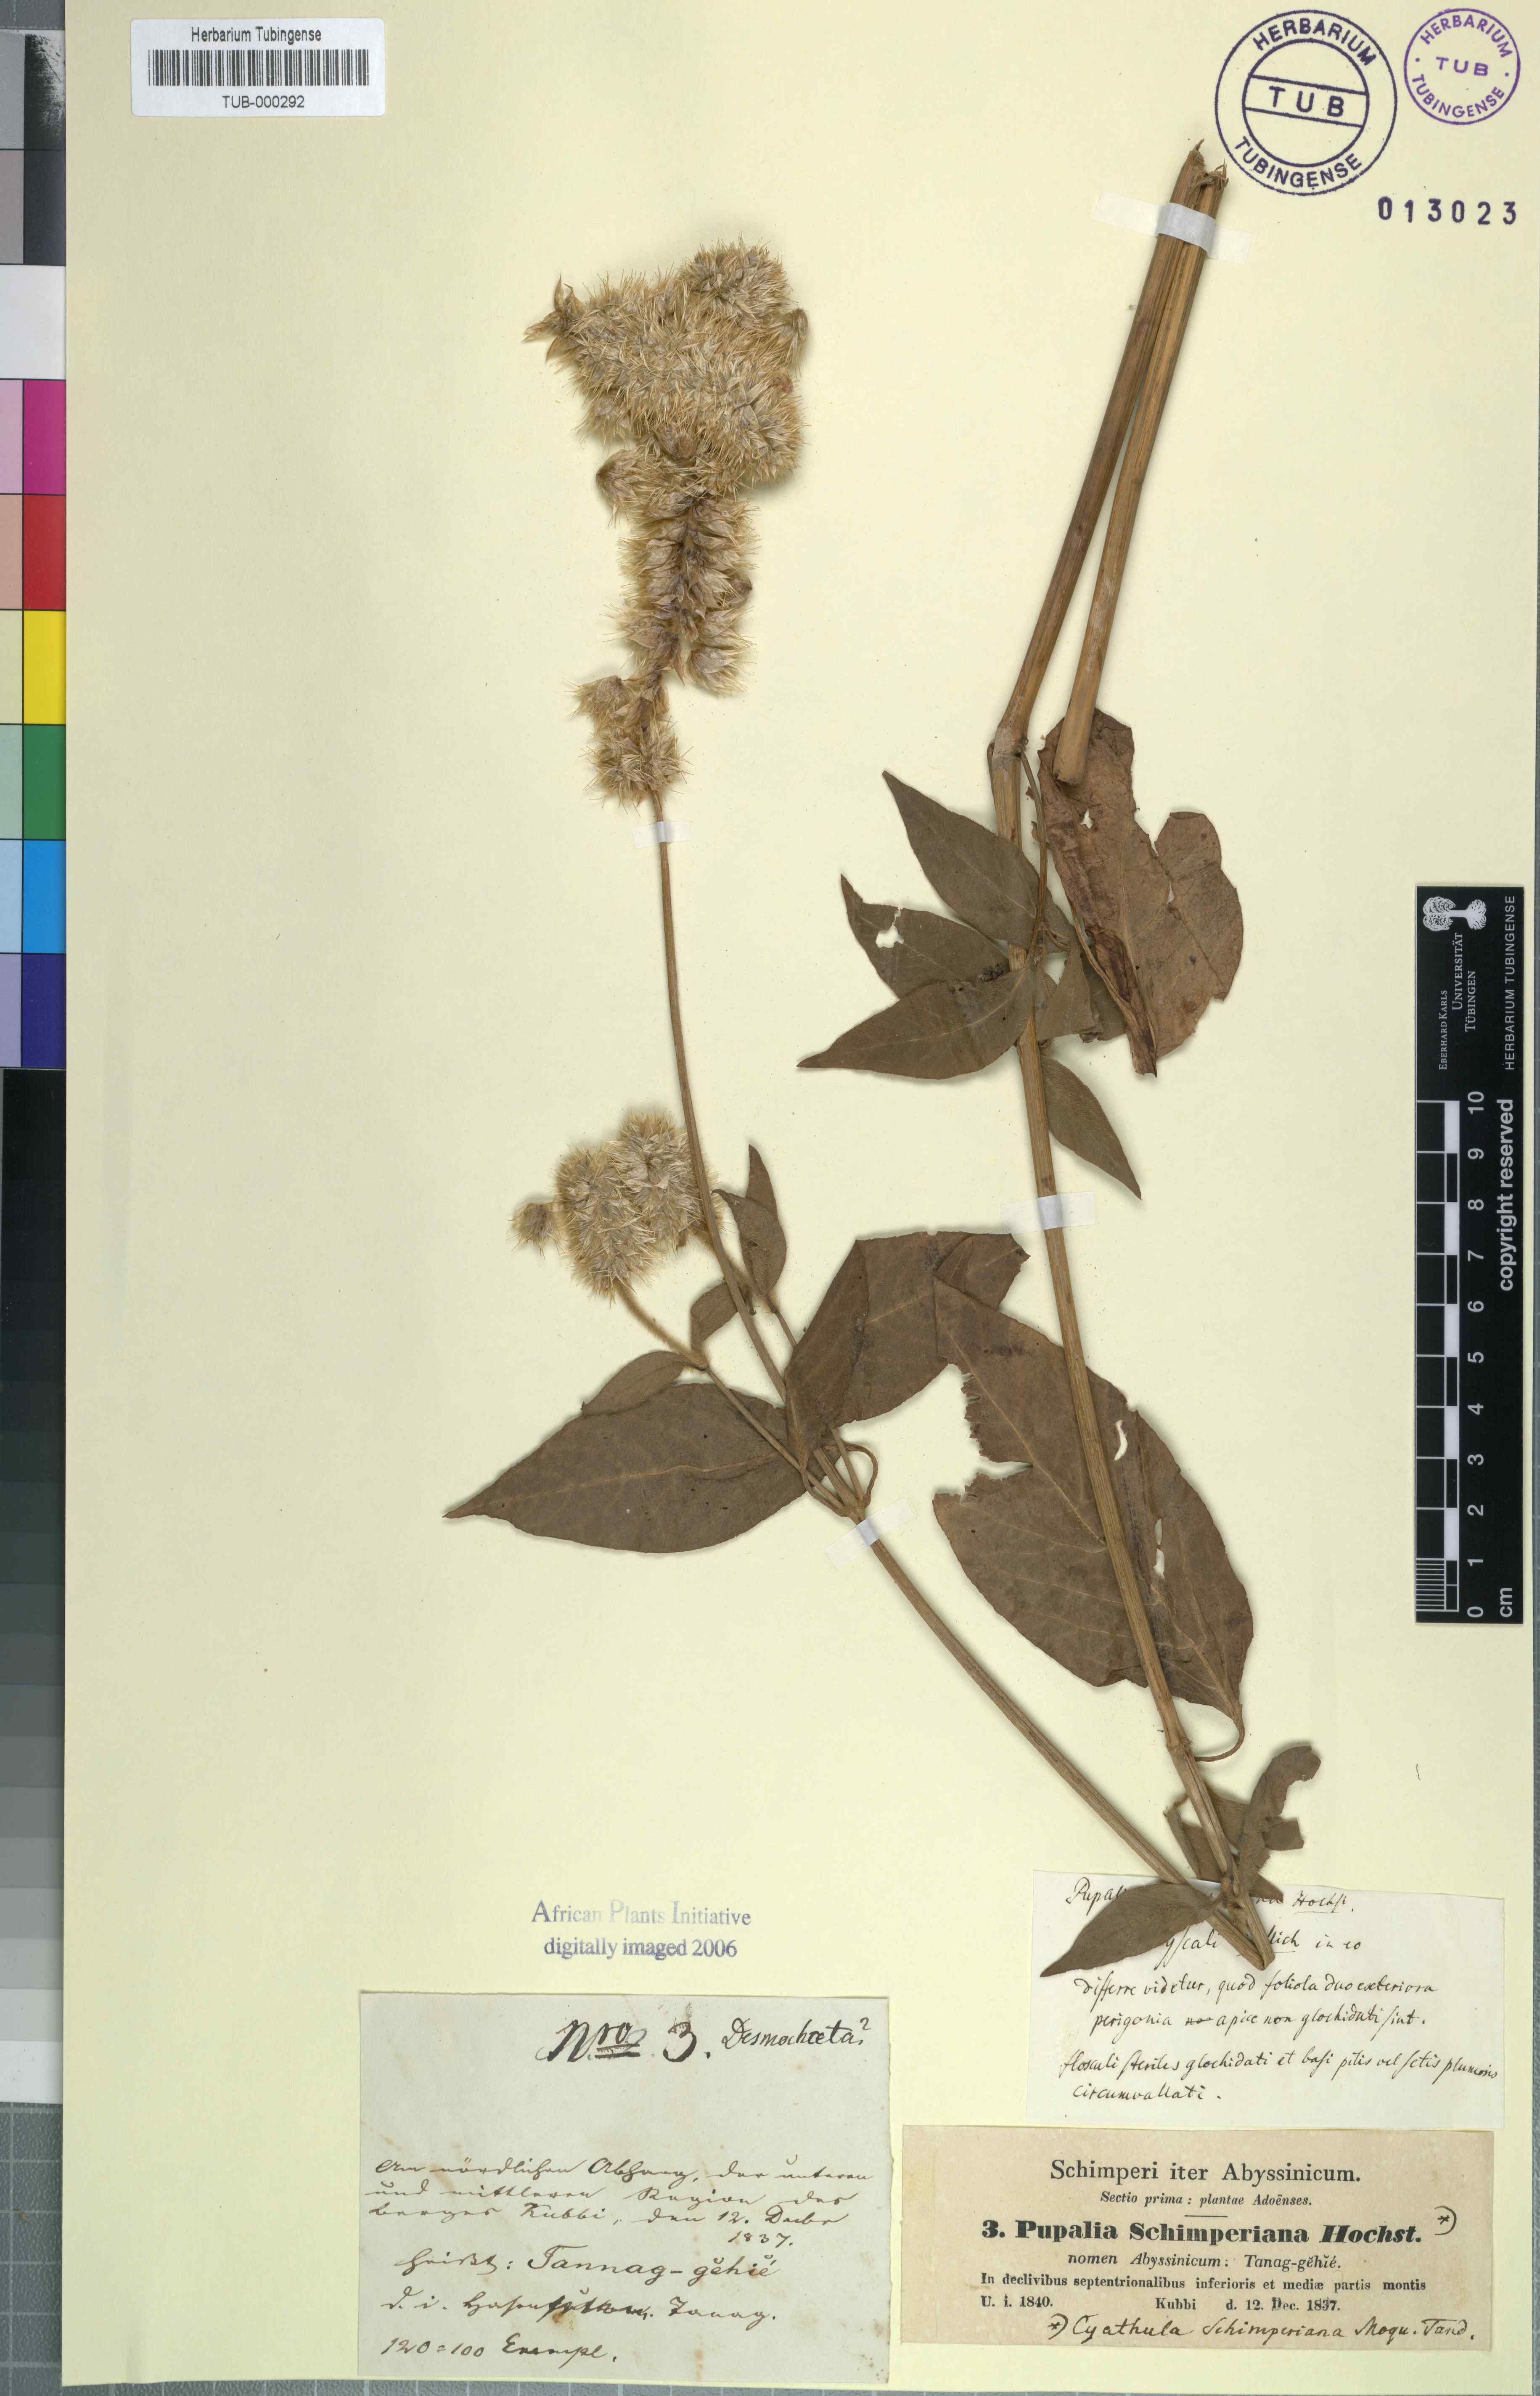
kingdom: Plantae
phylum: Tracheophyta
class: Magnoliopsida
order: Caryophyllales
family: Amaranthaceae
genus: Cyathula
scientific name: Cyathula cylindrica
